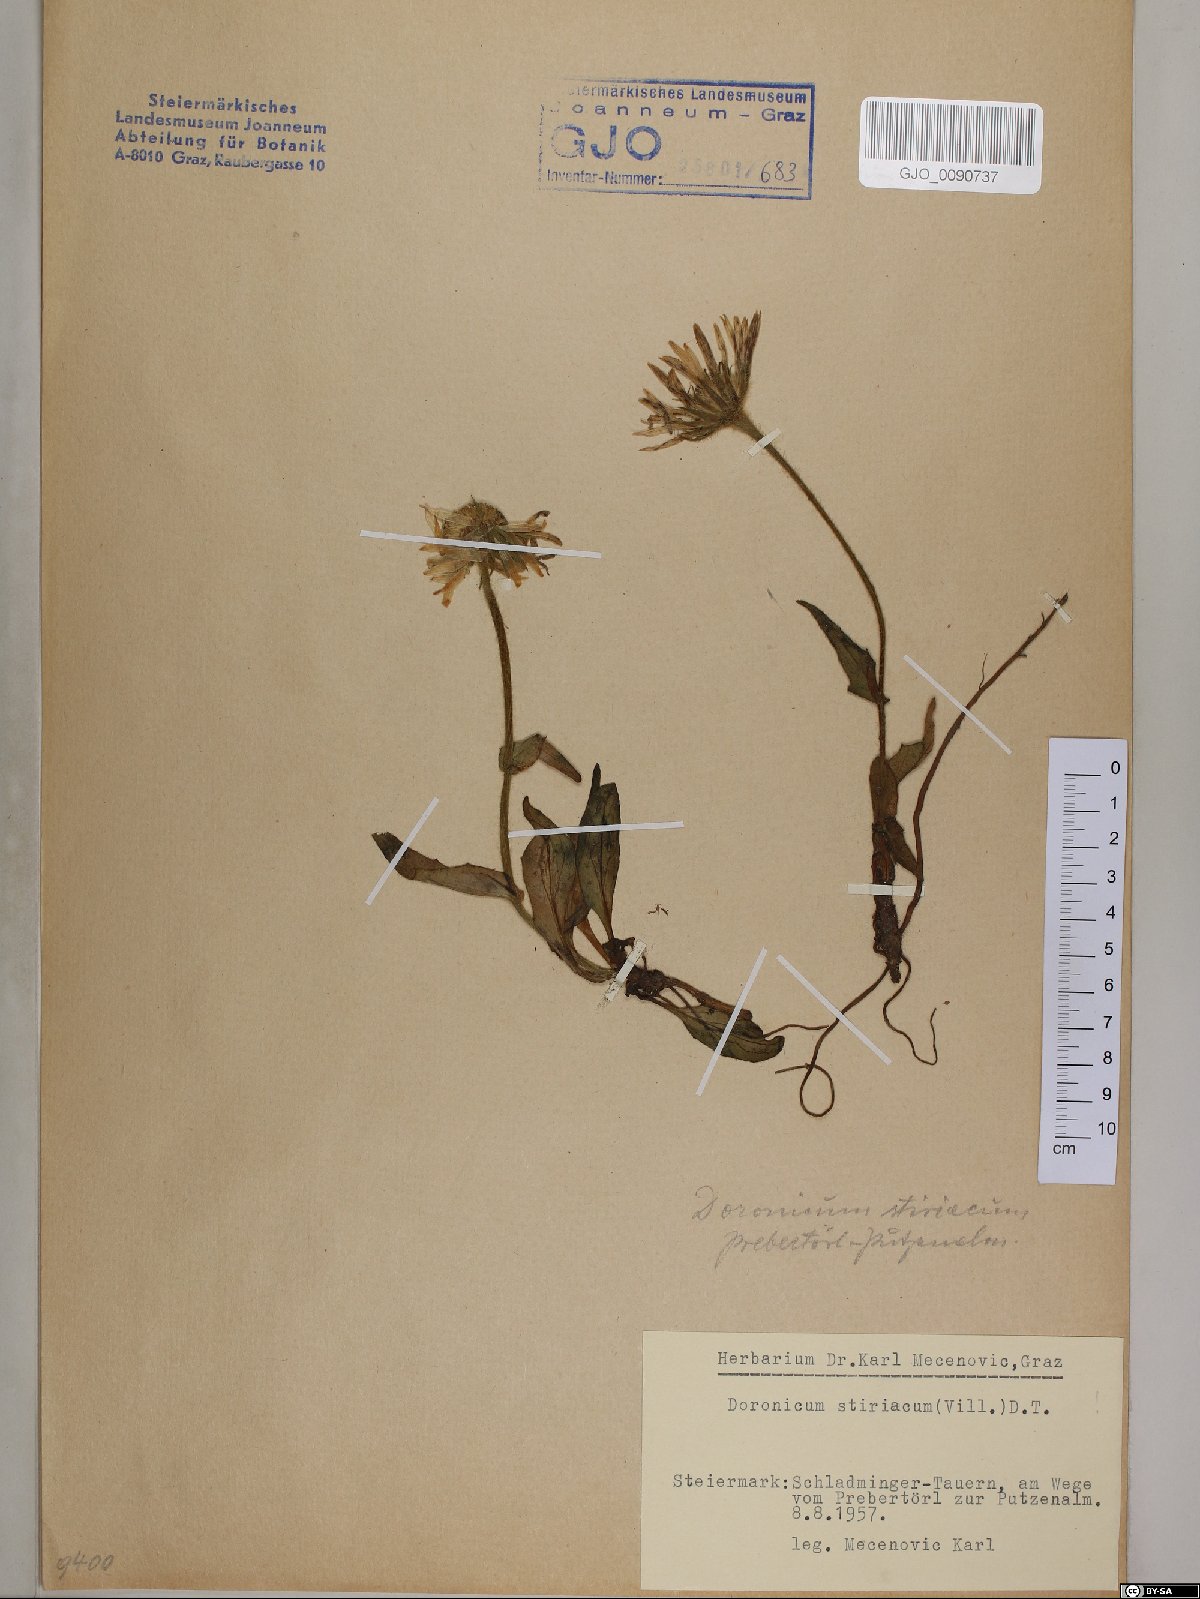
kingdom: Plantae
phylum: Tracheophyta
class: Magnoliopsida
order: Asterales
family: Asteraceae
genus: Doronicum
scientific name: Doronicum clusii
